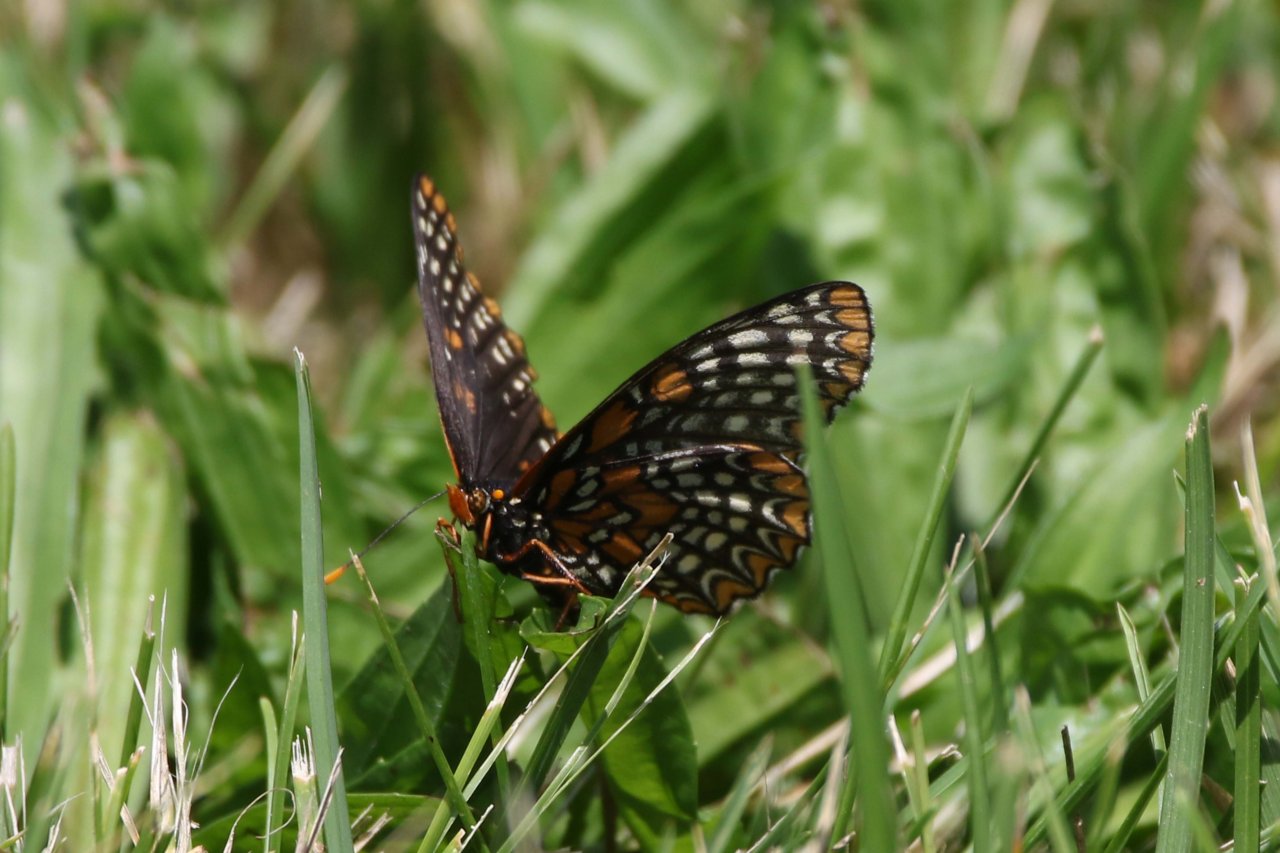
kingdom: Animalia
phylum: Arthropoda
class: Insecta
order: Lepidoptera
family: Nymphalidae
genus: Euphydryas
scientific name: Euphydryas phaeton
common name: Baltimore Checkerspot
